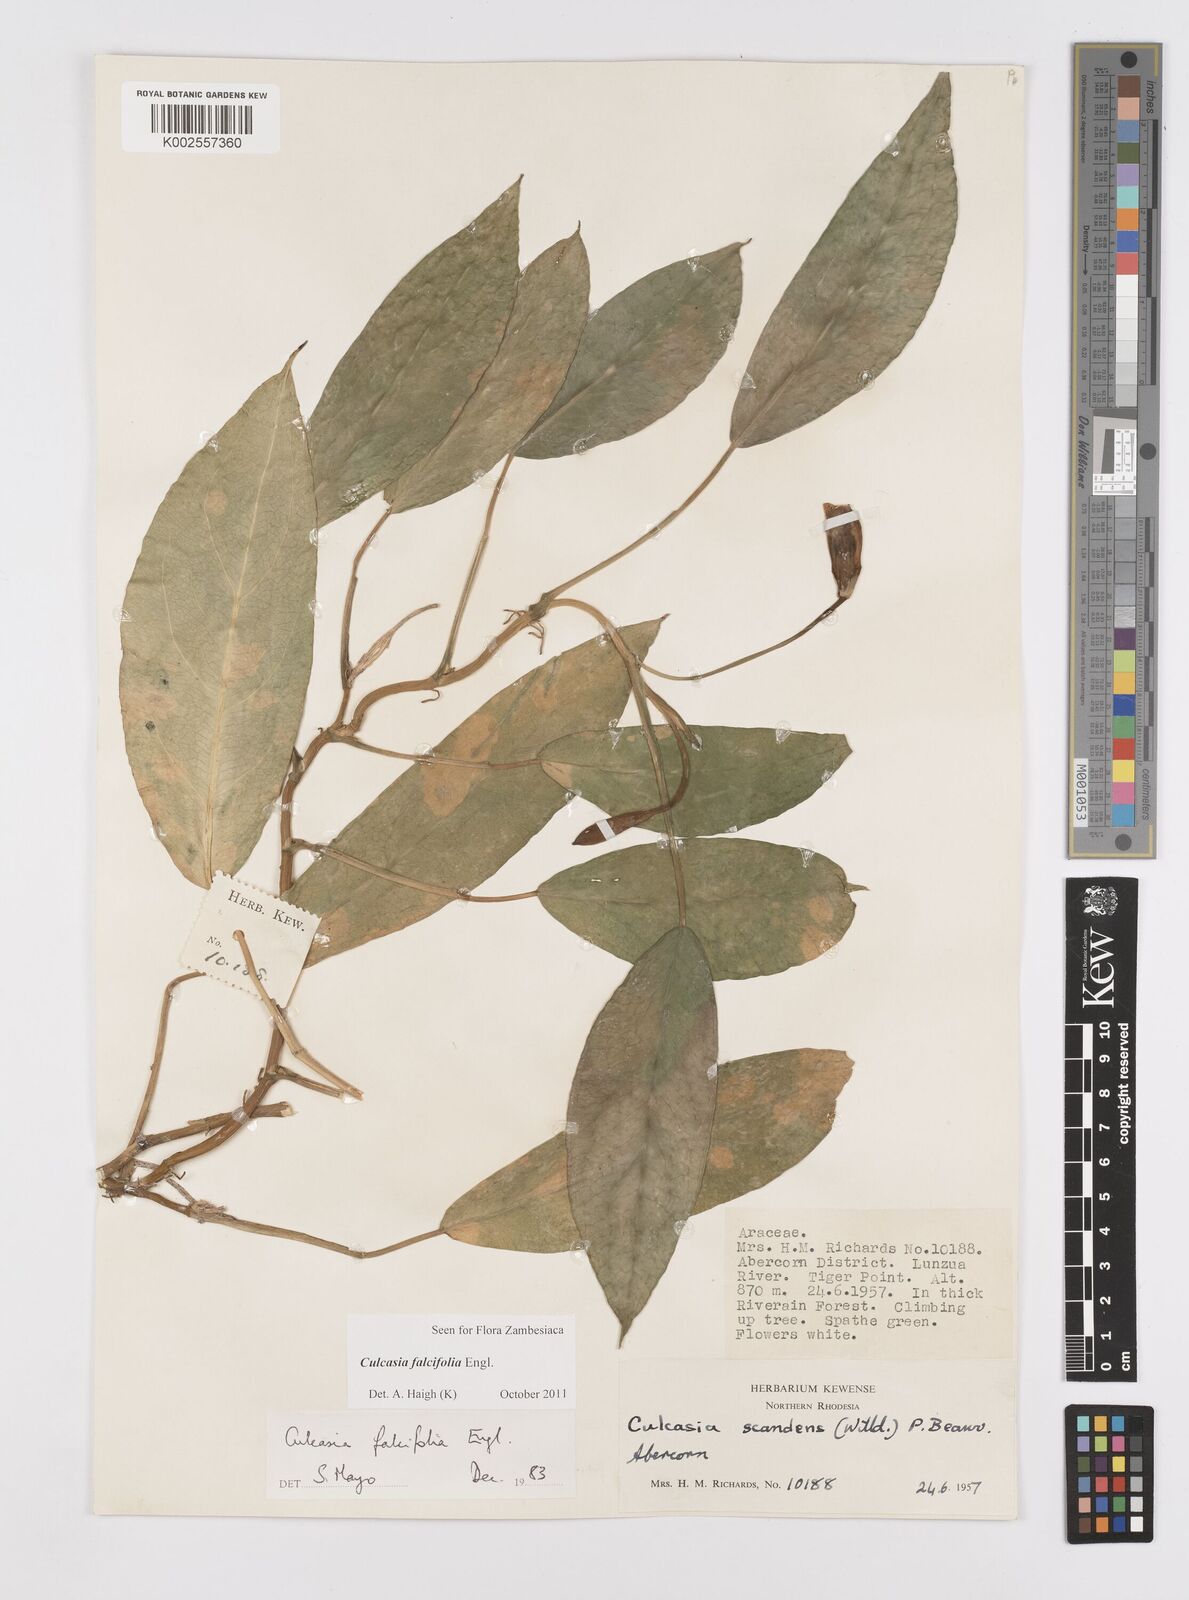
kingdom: Plantae
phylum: Tracheophyta
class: Liliopsida
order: Alismatales
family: Araceae
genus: Culcasia
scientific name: Culcasia falcifolia
